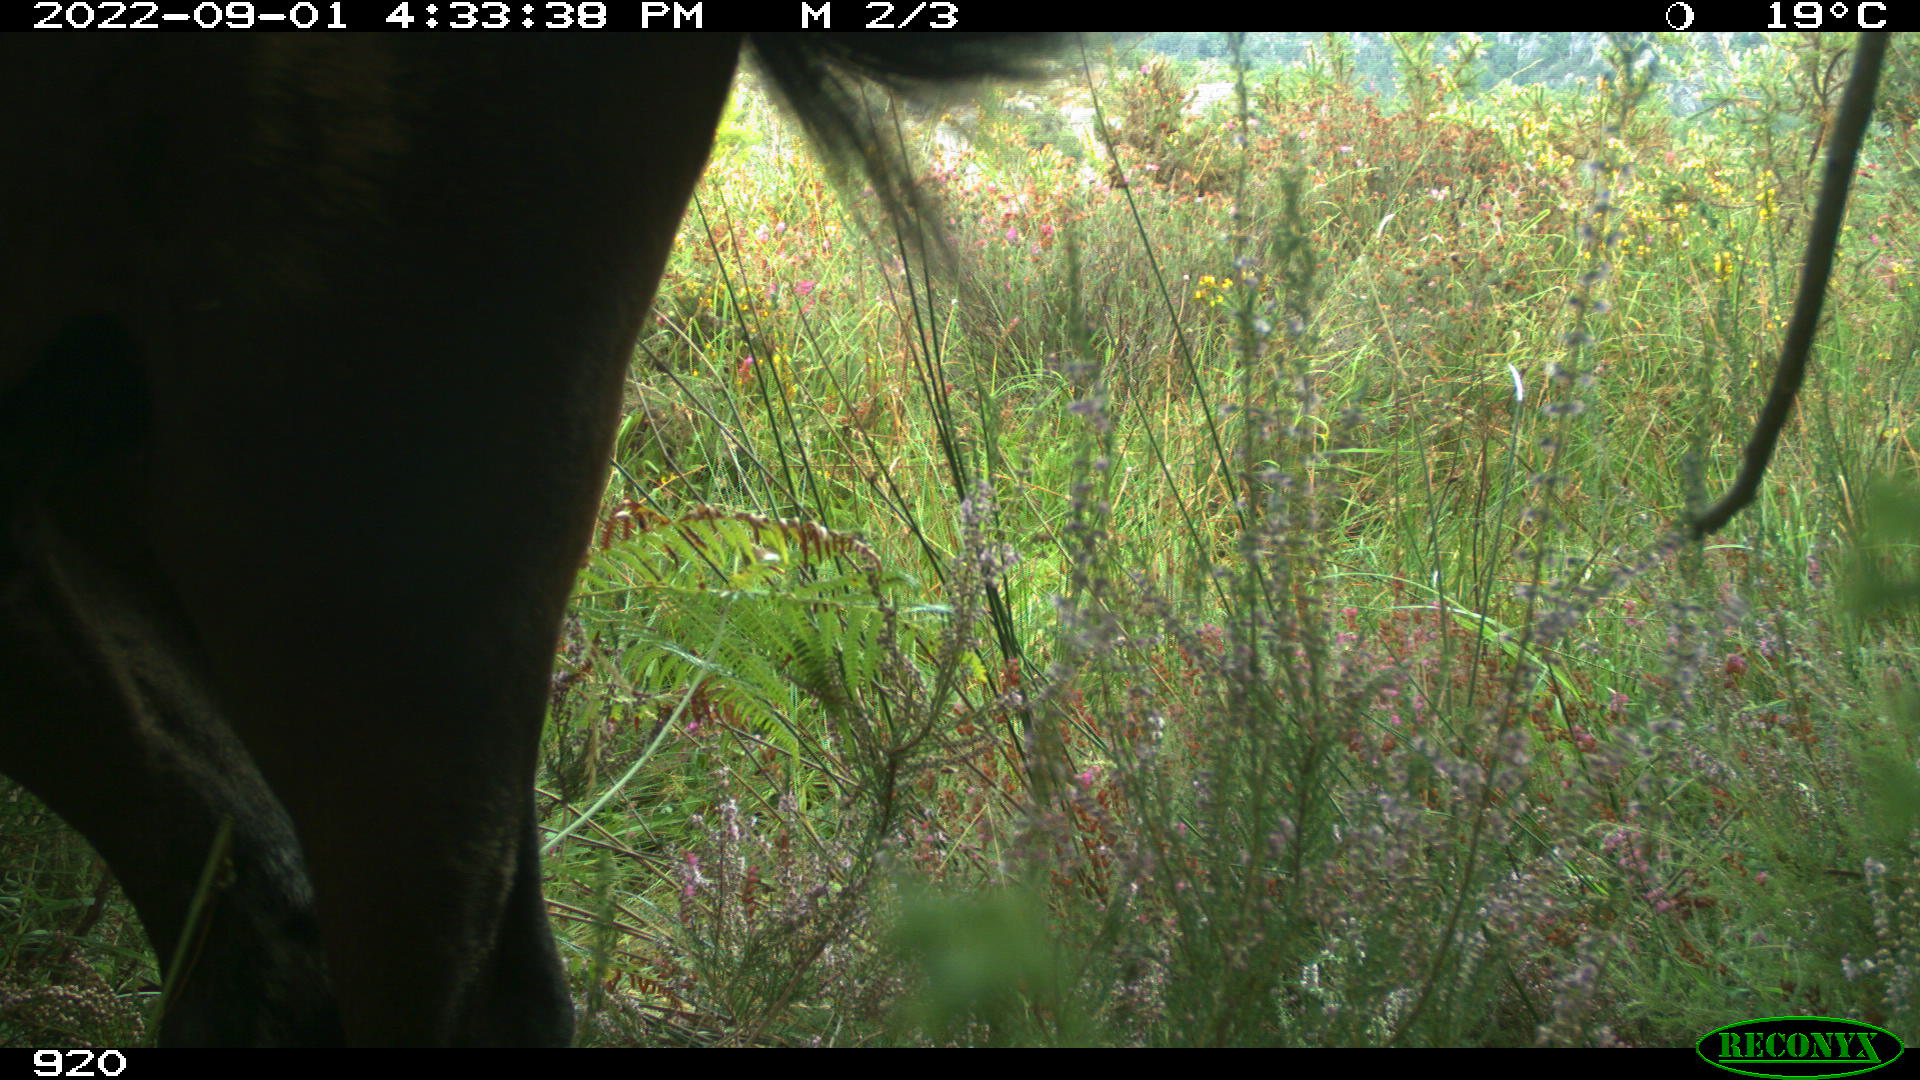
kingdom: Animalia
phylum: Chordata
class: Mammalia
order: Perissodactyla
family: Equidae
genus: Equus
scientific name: Equus caballus
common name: Horse
